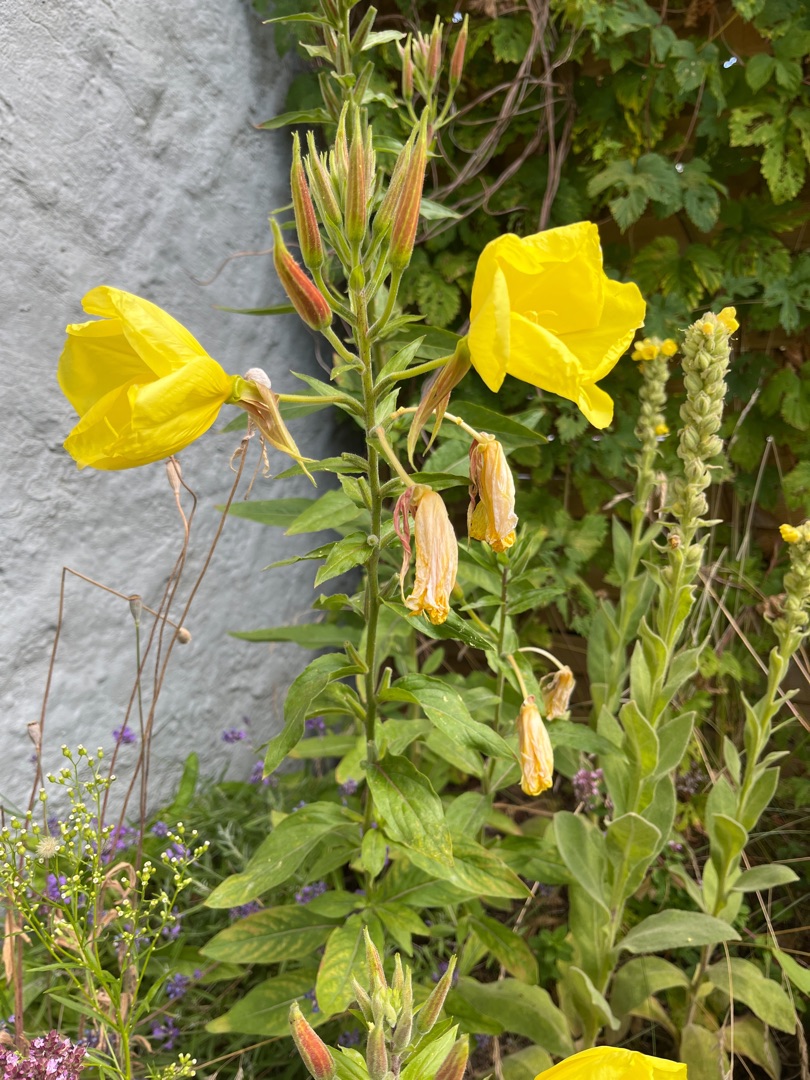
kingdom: Plantae
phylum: Tracheophyta
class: Magnoliopsida
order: Myrtales
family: Onagraceae
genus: Oenothera
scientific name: Oenothera glazioviana
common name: Kæmpe-natlys
